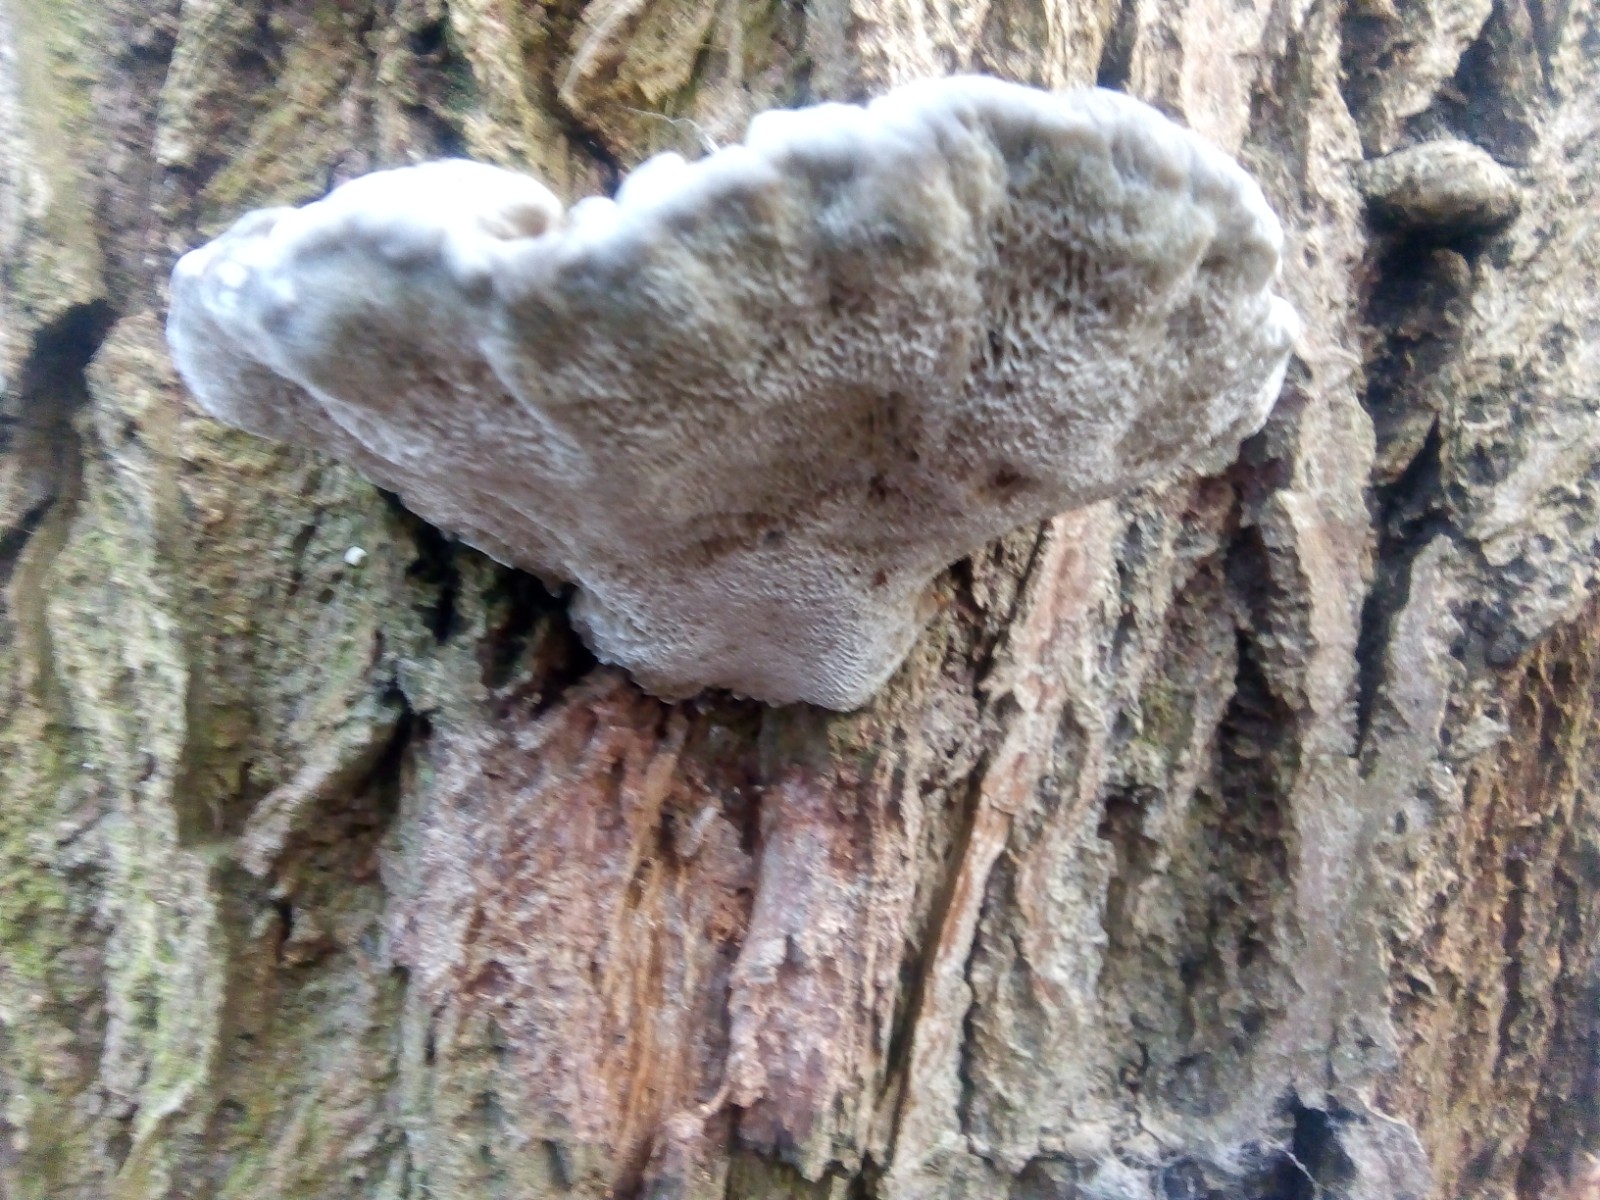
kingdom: Fungi
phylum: Basidiomycota
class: Agaricomycetes
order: Polyporales
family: Polyporaceae
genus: Daedaleopsis
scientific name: Daedaleopsis confragosa
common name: rødmende læderporesvamp
